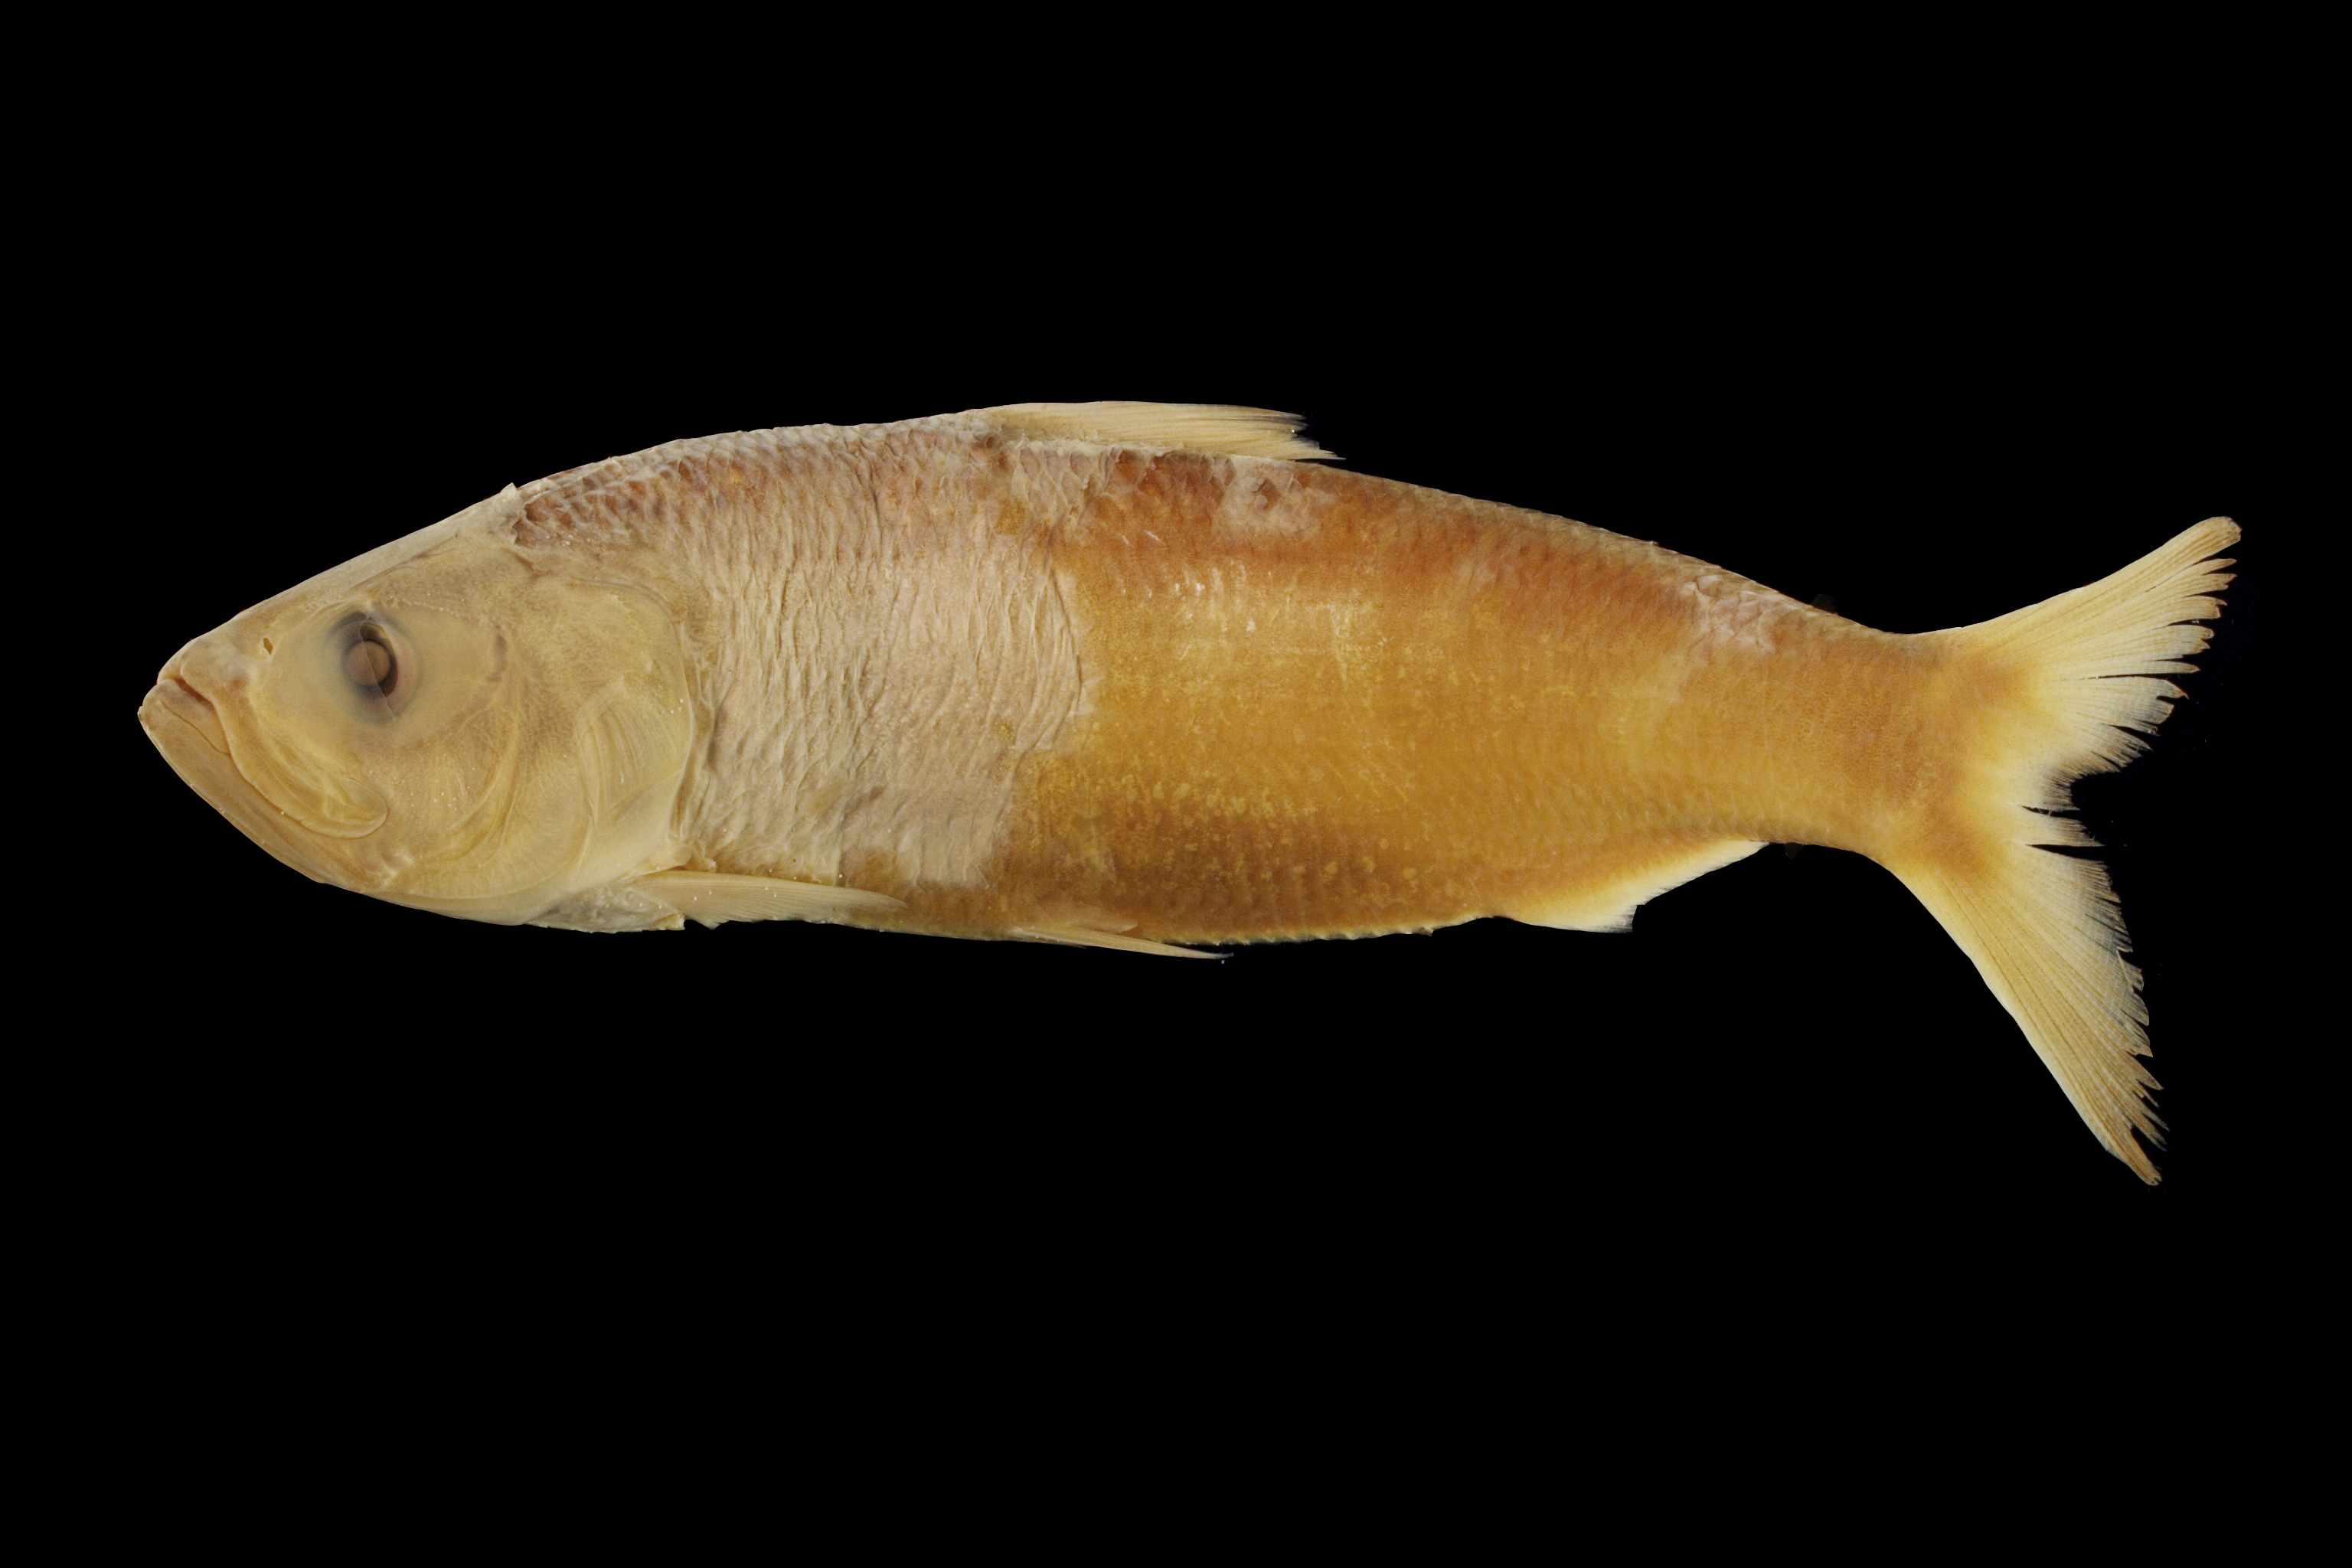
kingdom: Animalia
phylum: Chordata
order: Clupeiformes
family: Clupeidae
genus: Alosa
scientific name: Alosa chrysochloris
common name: Skipjack shad
